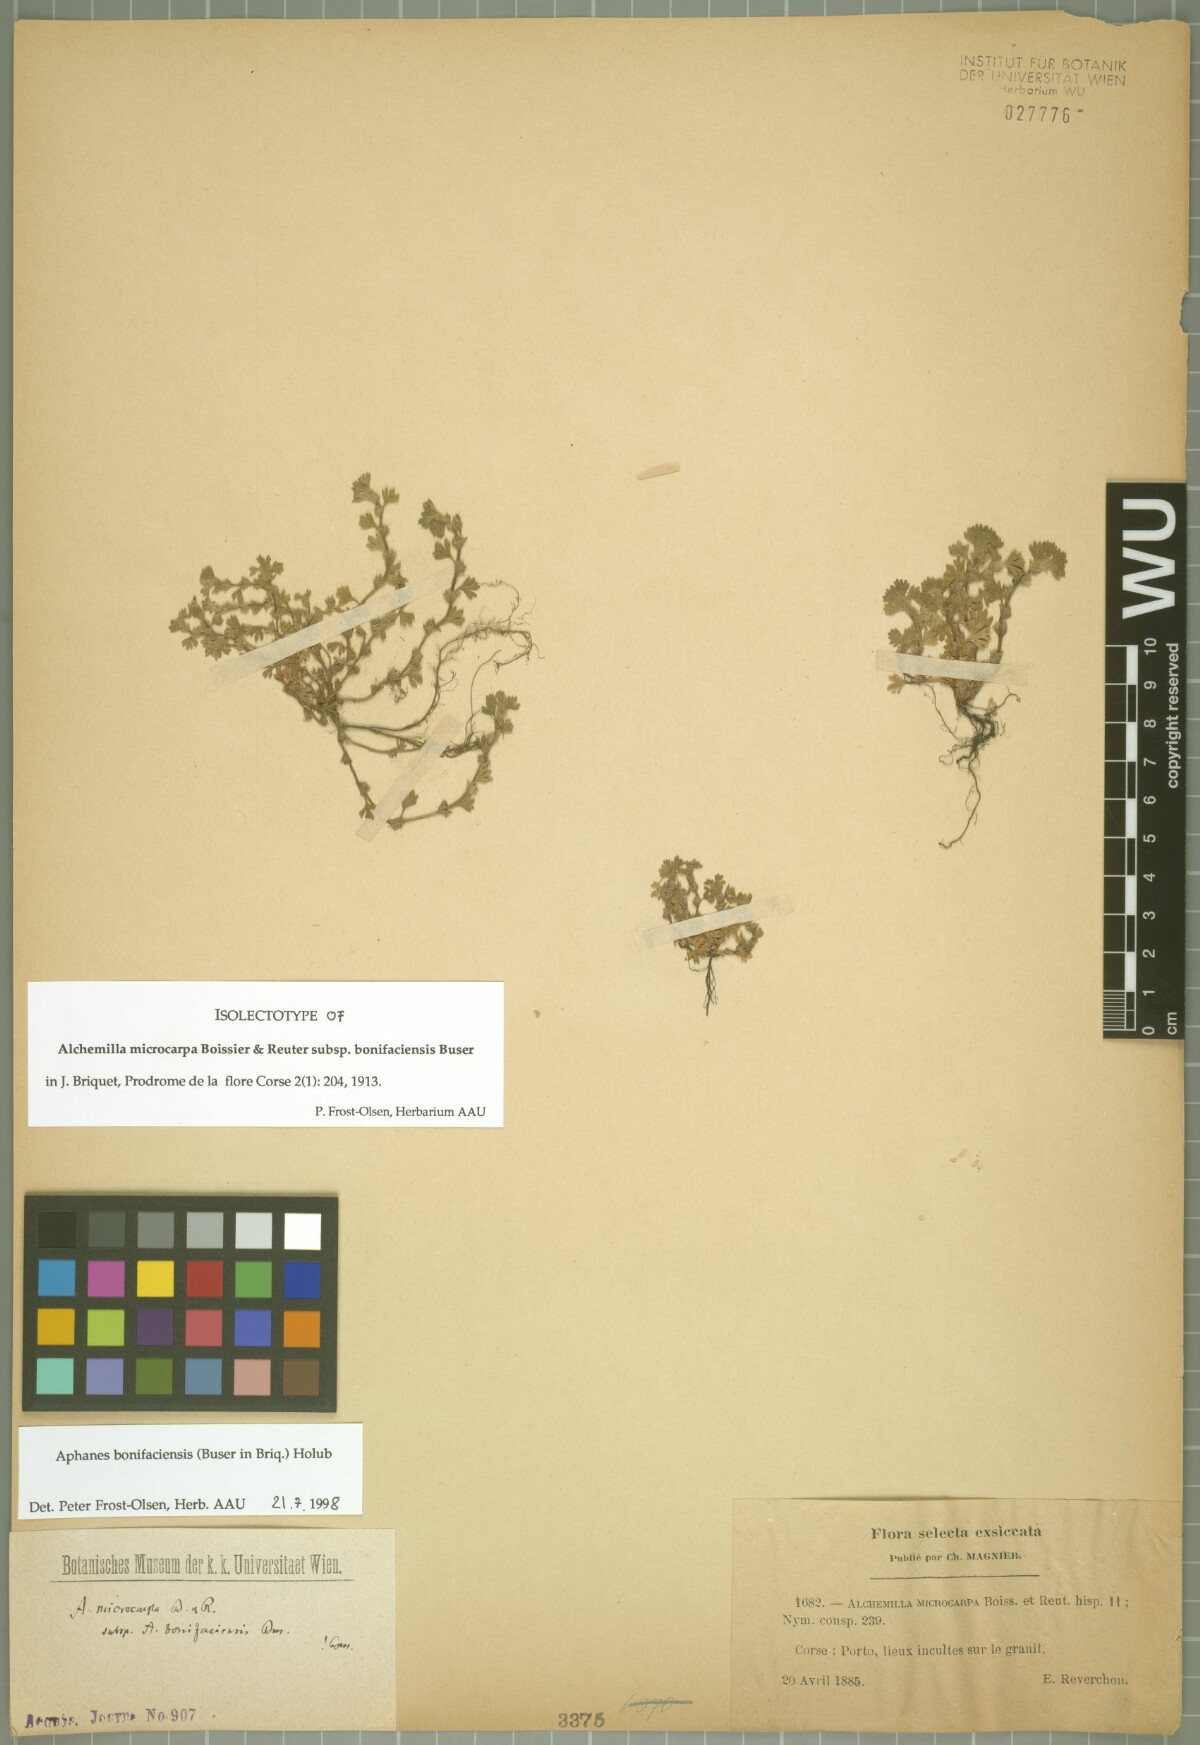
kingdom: Plantae
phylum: Tracheophyta
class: Magnoliopsida
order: Rosales
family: Rosaceae
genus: Aphanes
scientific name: Aphanes minutiflora
